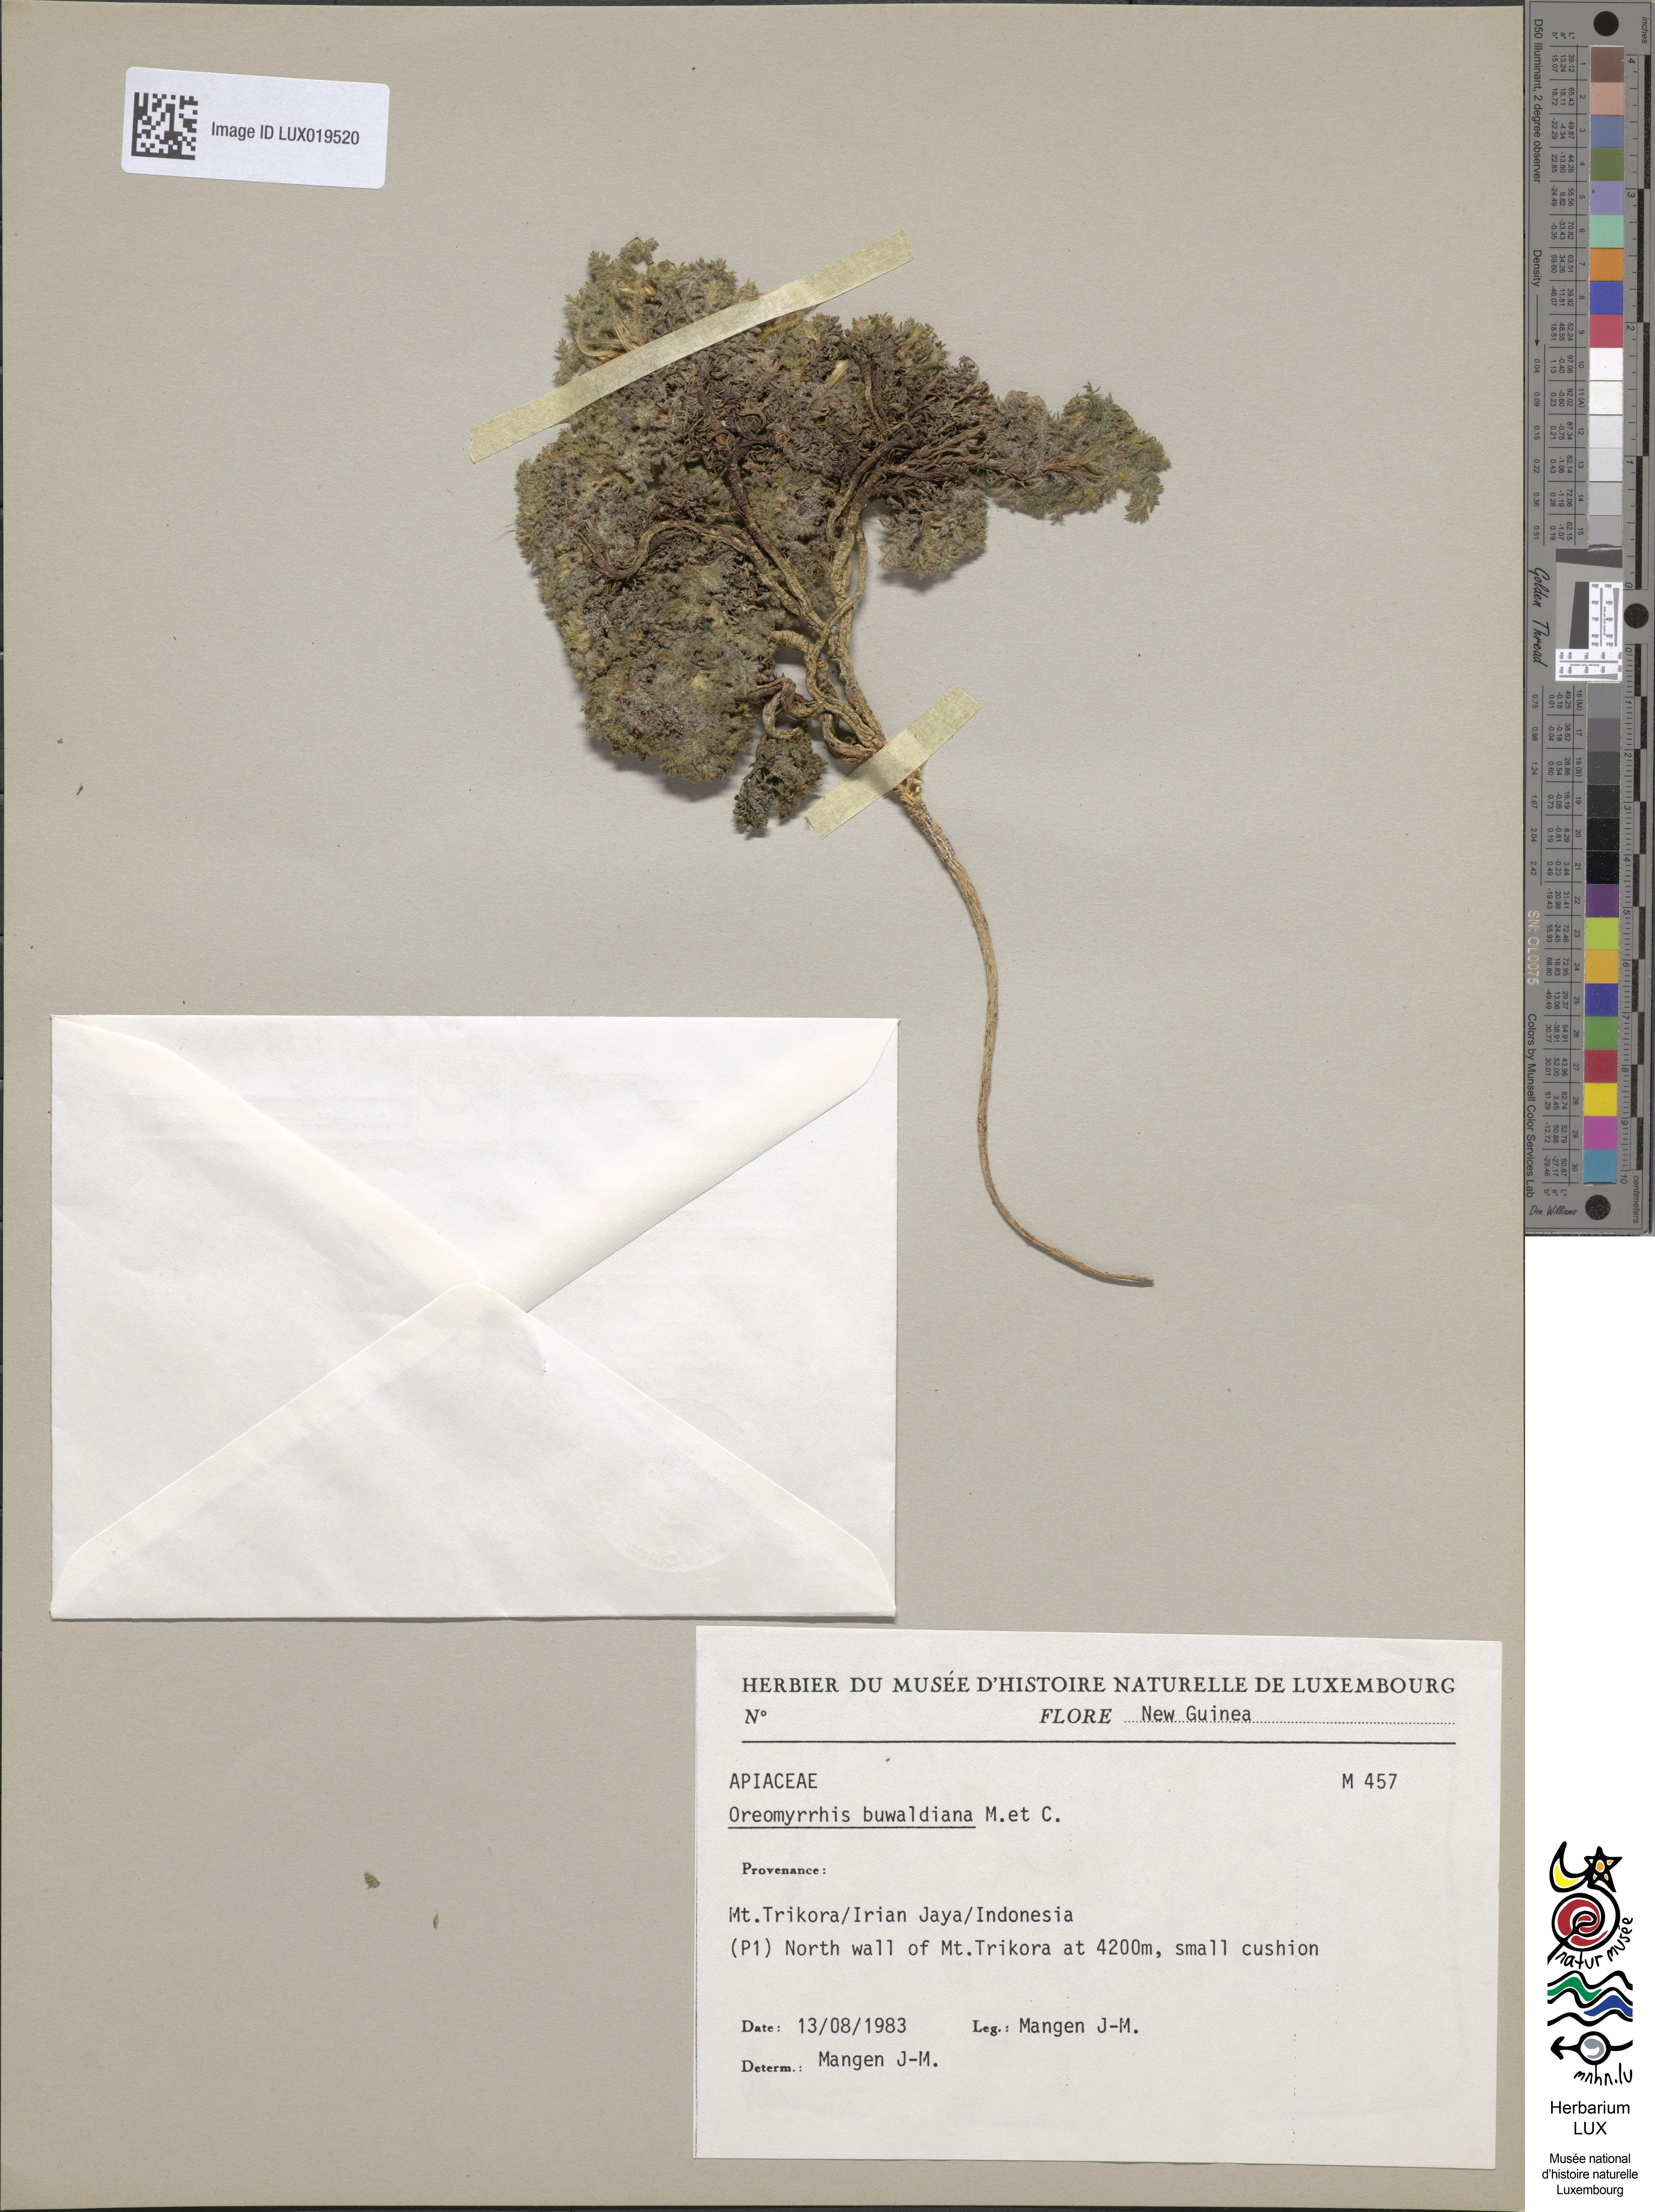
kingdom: Plantae
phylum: Tracheophyta
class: Magnoliopsida
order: Apiales
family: Apiaceae
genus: Chaerophyllum
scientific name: Chaerophyllum buwaldianum
